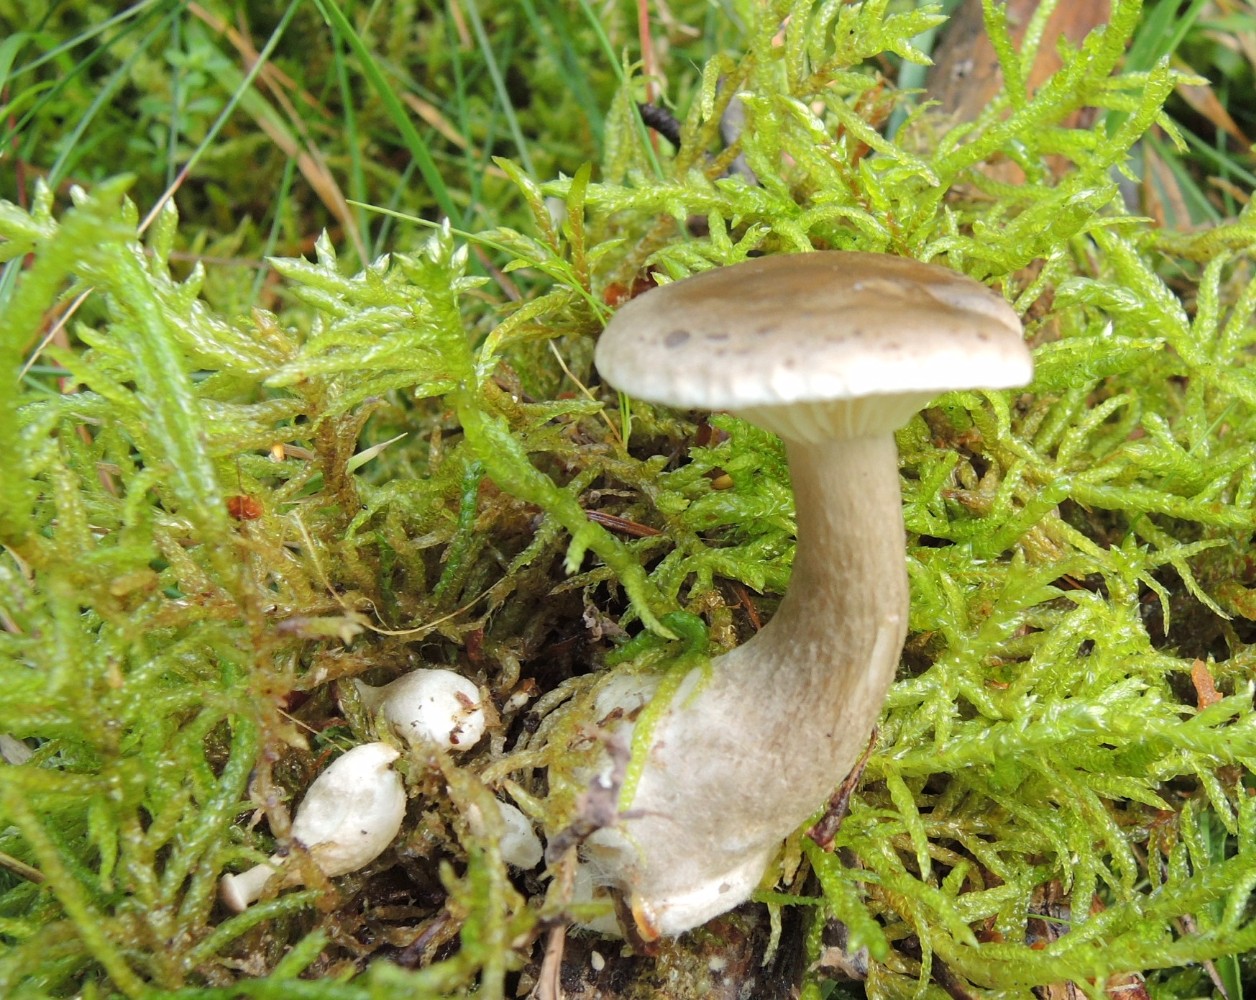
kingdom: Fungi
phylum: Basidiomycota
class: Agaricomycetes
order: Agaricales
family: Hygrophoraceae
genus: Ampulloclitocybe
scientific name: Ampulloclitocybe clavipes
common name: køllefod
